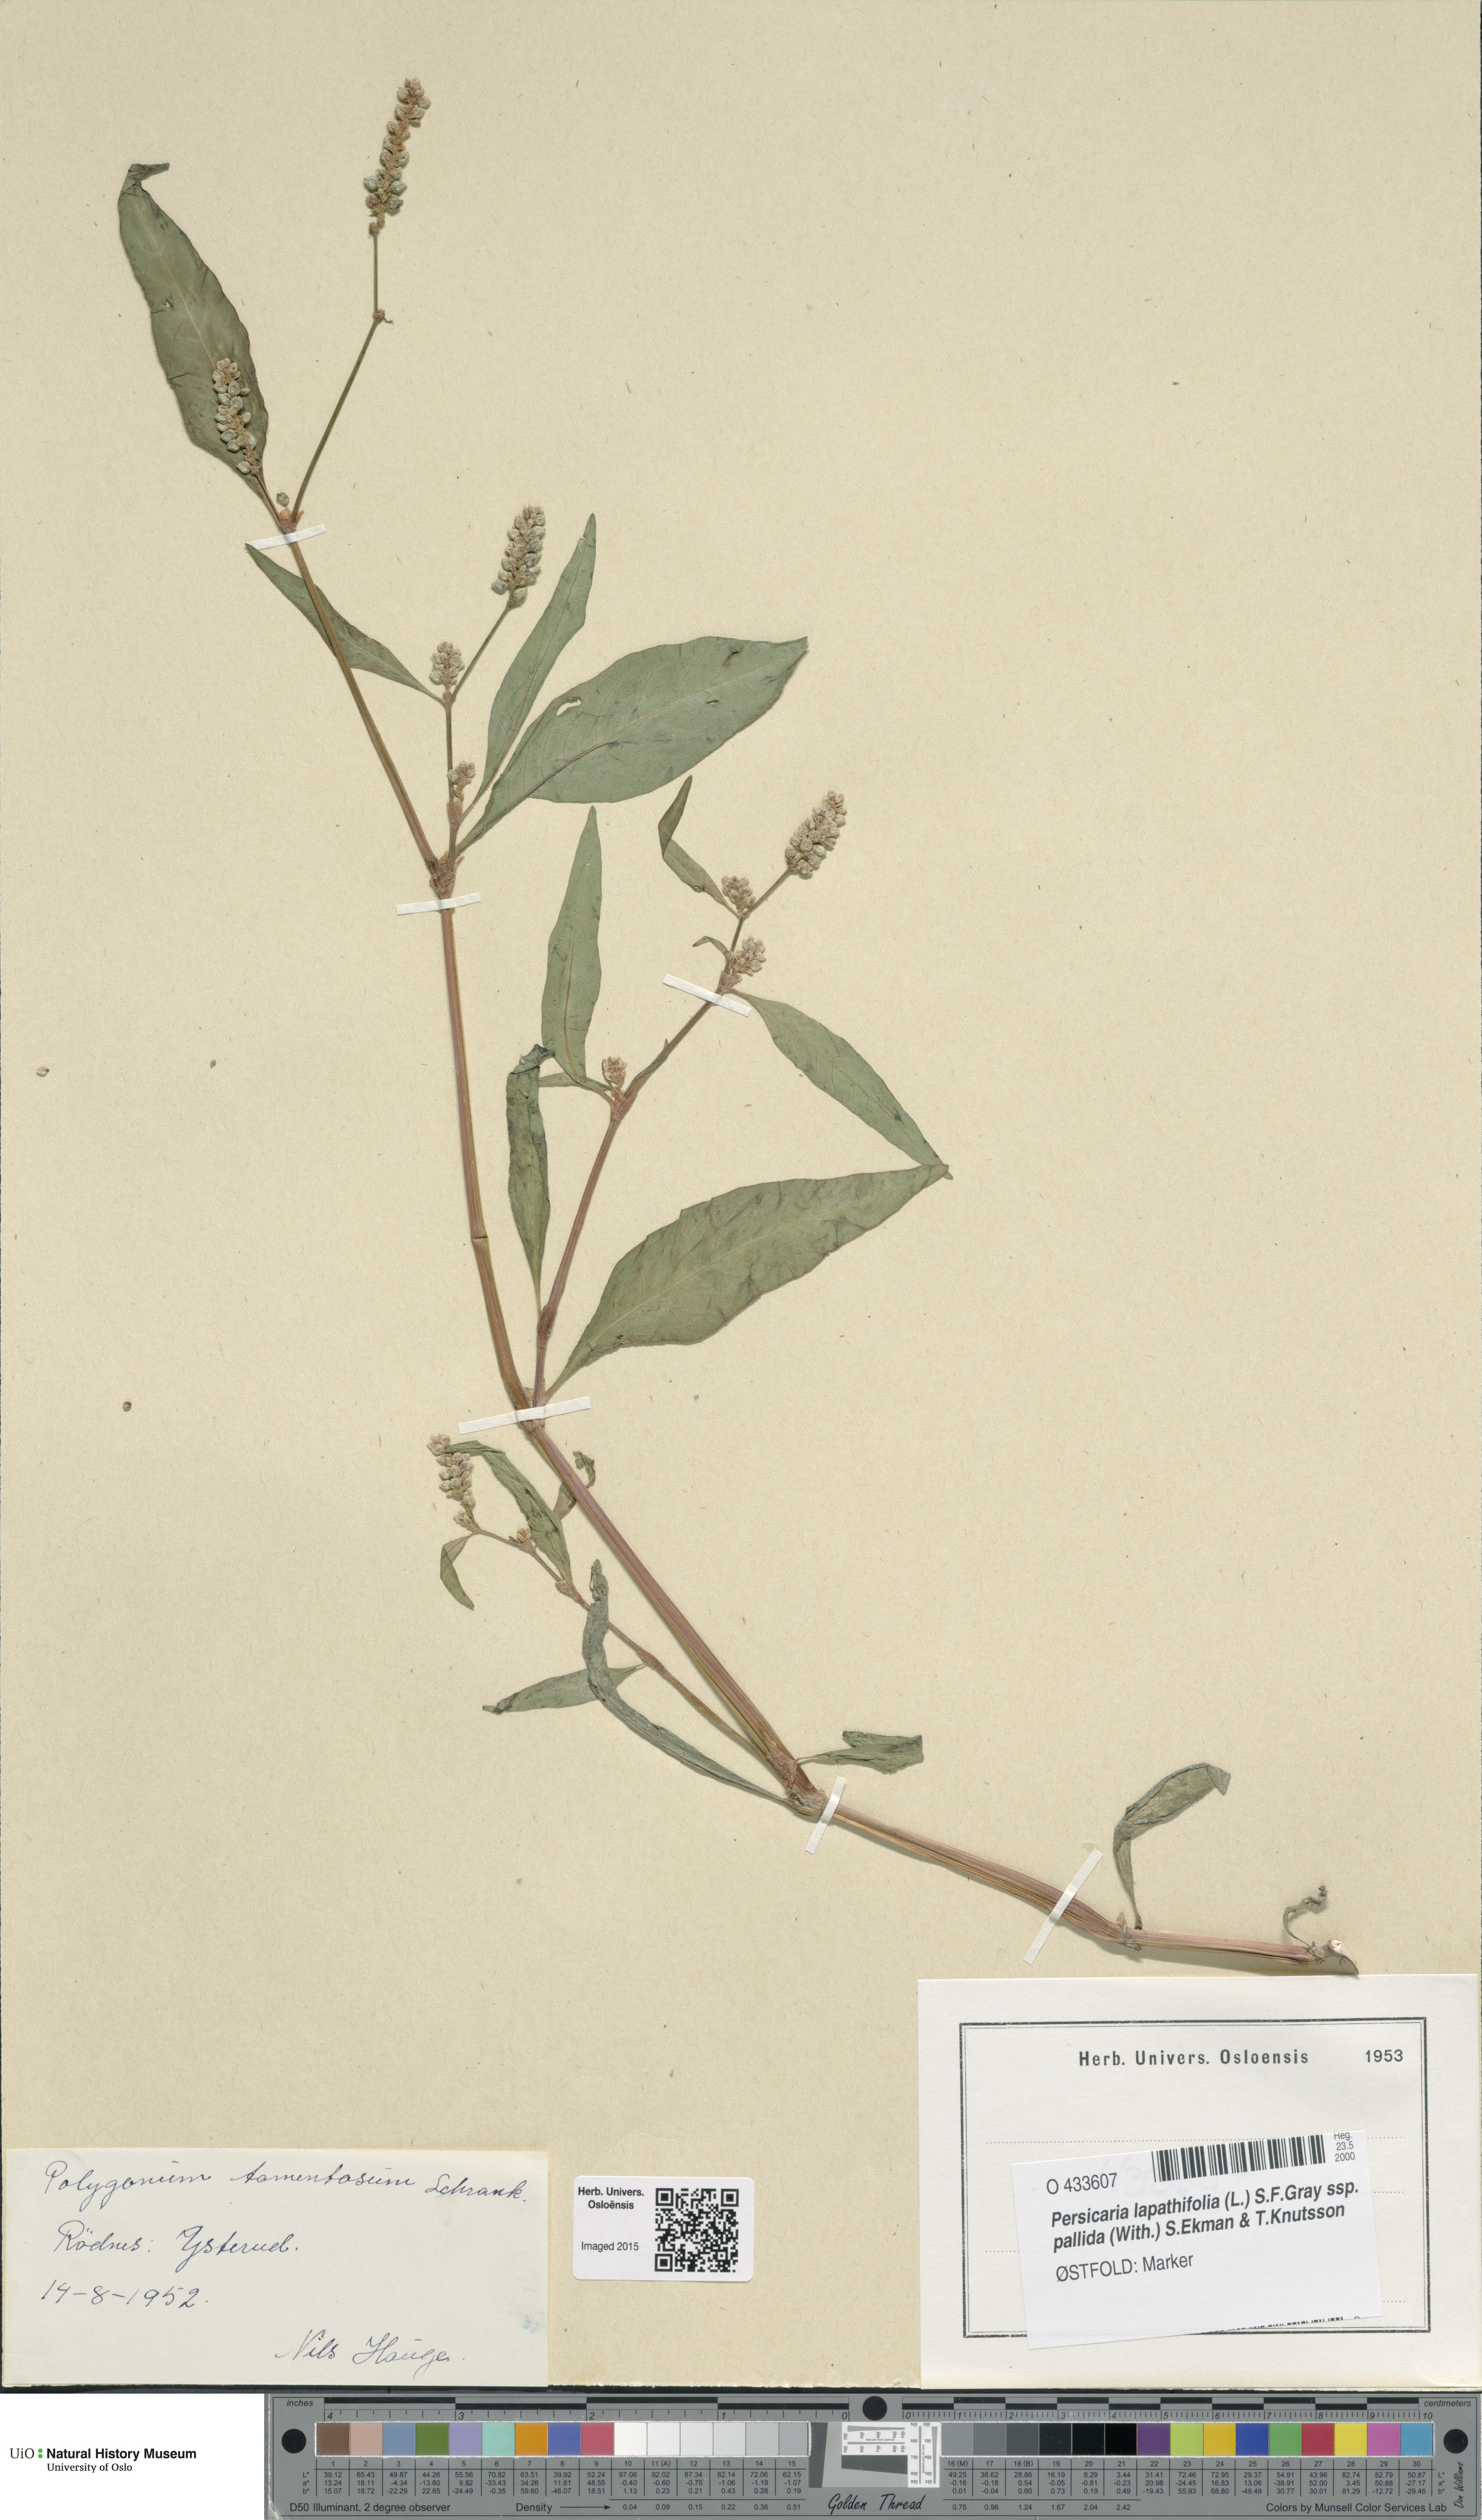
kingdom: Plantae
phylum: Tracheophyta
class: Magnoliopsida
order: Caryophyllales
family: Polygonaceae
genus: Persicaria
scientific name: Persicaria lapathifolia
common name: Curlytop knotweed
